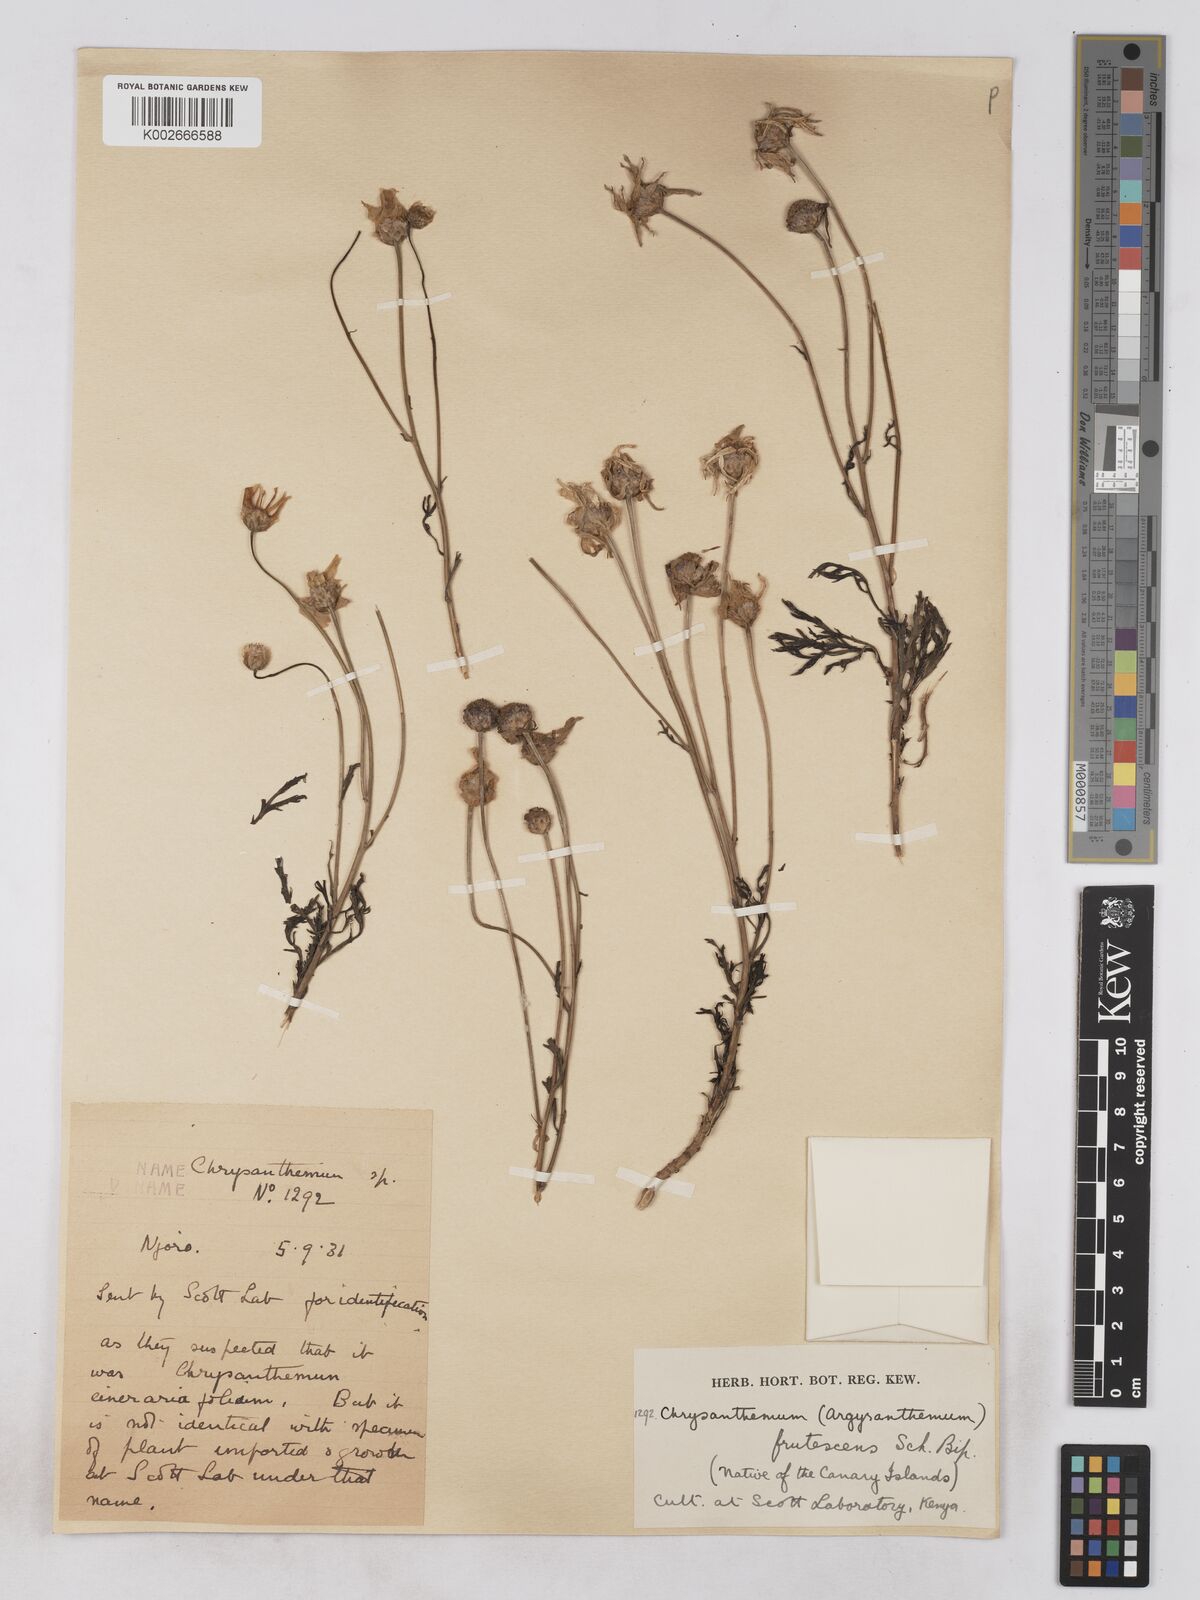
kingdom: Plantae
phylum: Tracheophyta
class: Magnoliopsida
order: Asterales
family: Asteraceae
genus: Argyranthemum
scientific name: Argyranthemum frutescens
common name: Paris daisy
